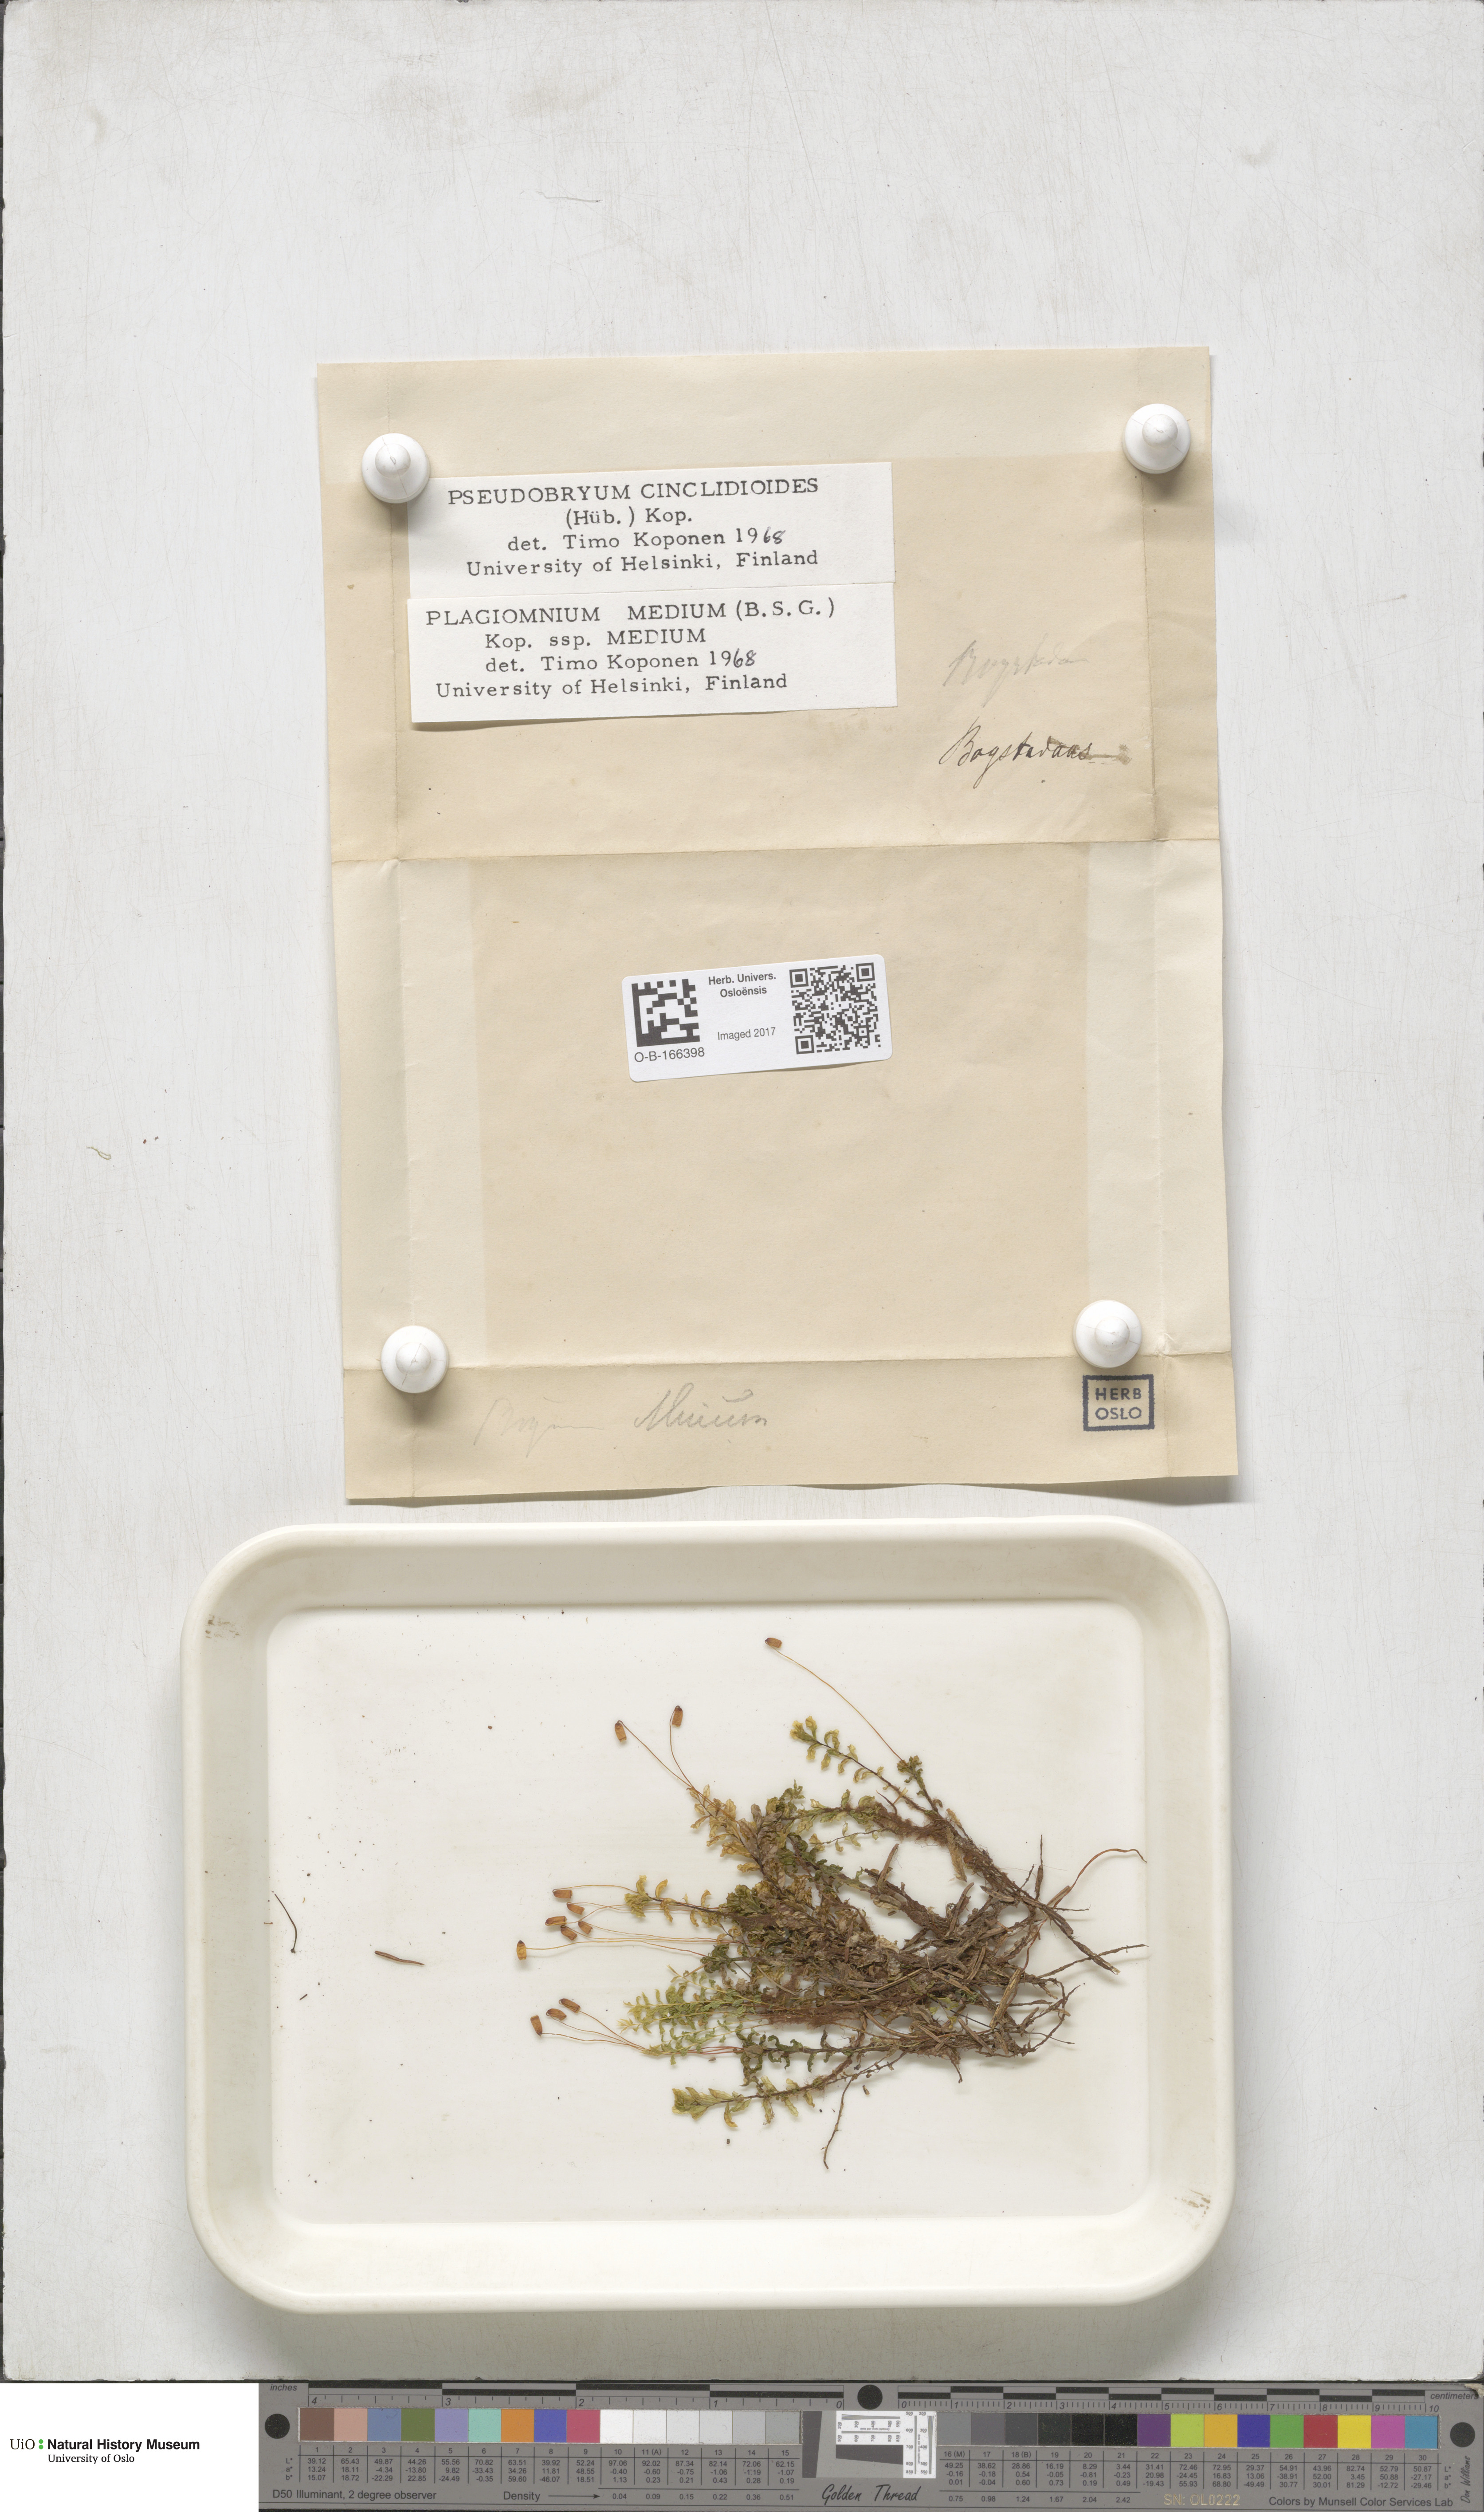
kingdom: Plantae
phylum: Bryophyta
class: Bryopsida
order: Bryales
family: Mniaceae
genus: Pseudobryum
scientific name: Pseudobryum cinclidioides
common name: River thyme moss
